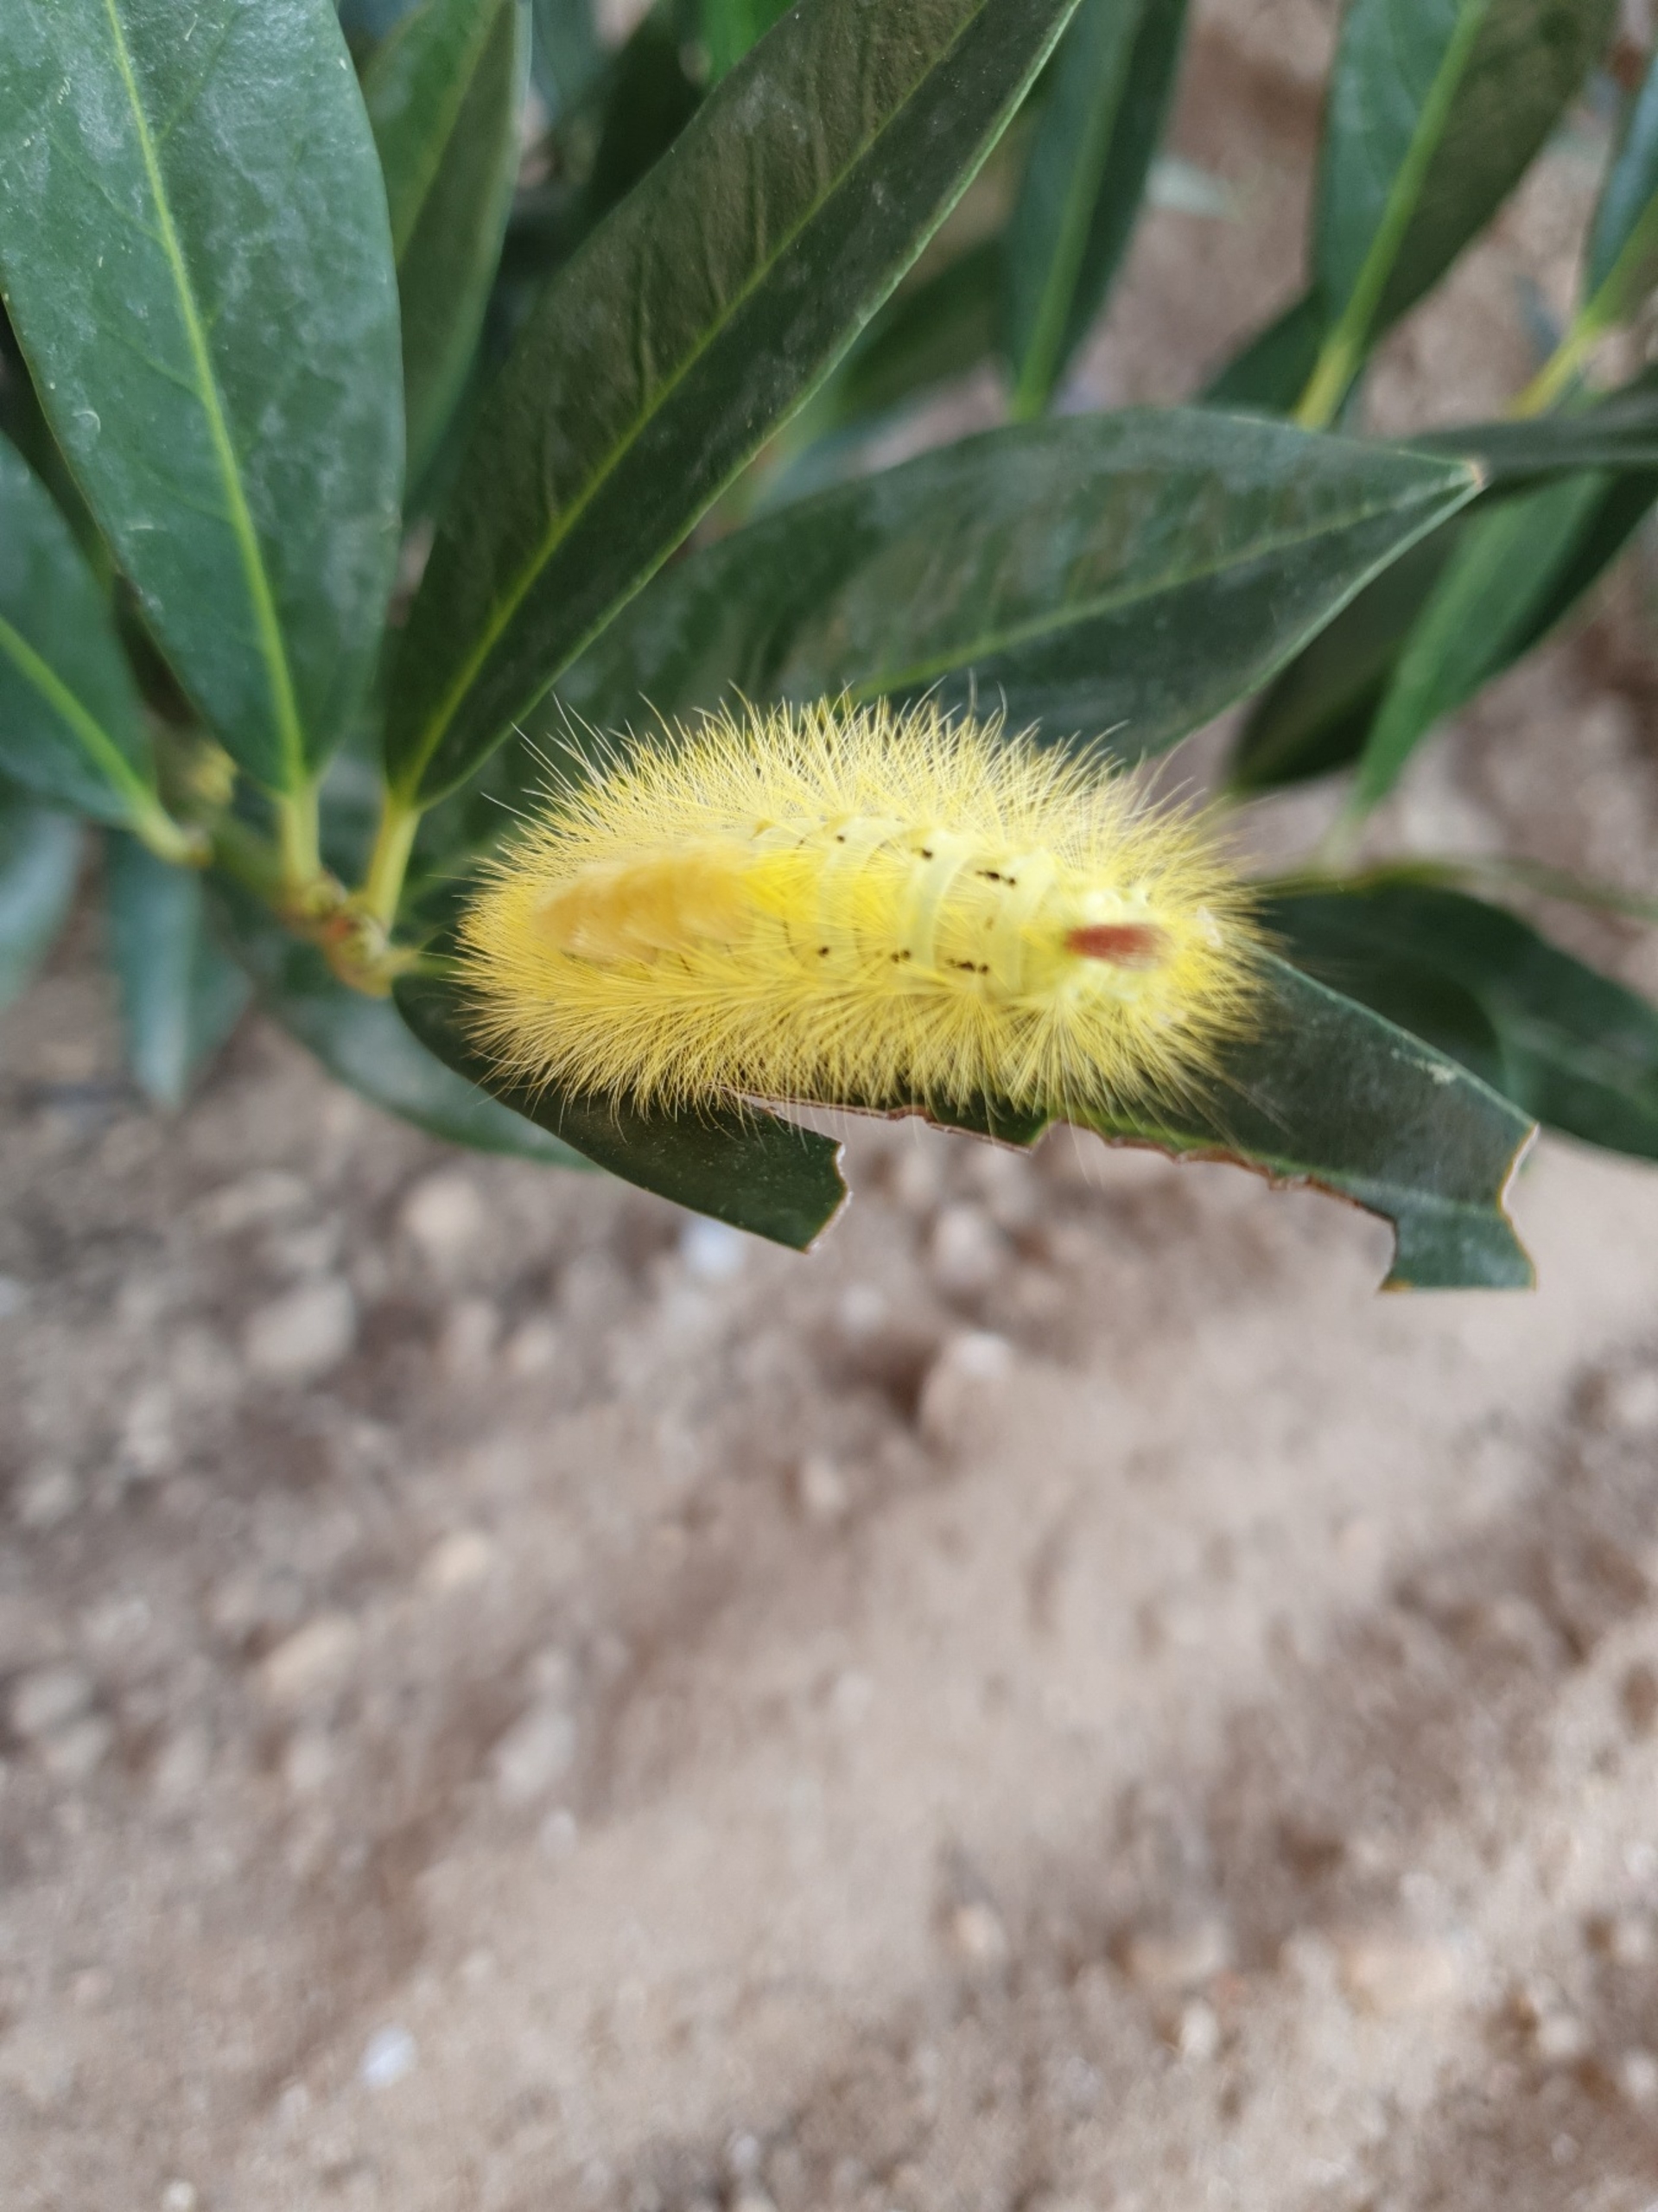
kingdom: Animalia
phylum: Arthropoda
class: Insecta
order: Lepidoptera
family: Erebidae
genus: Calliteara
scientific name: Calliteara pudibunda
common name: Bøgenonne
